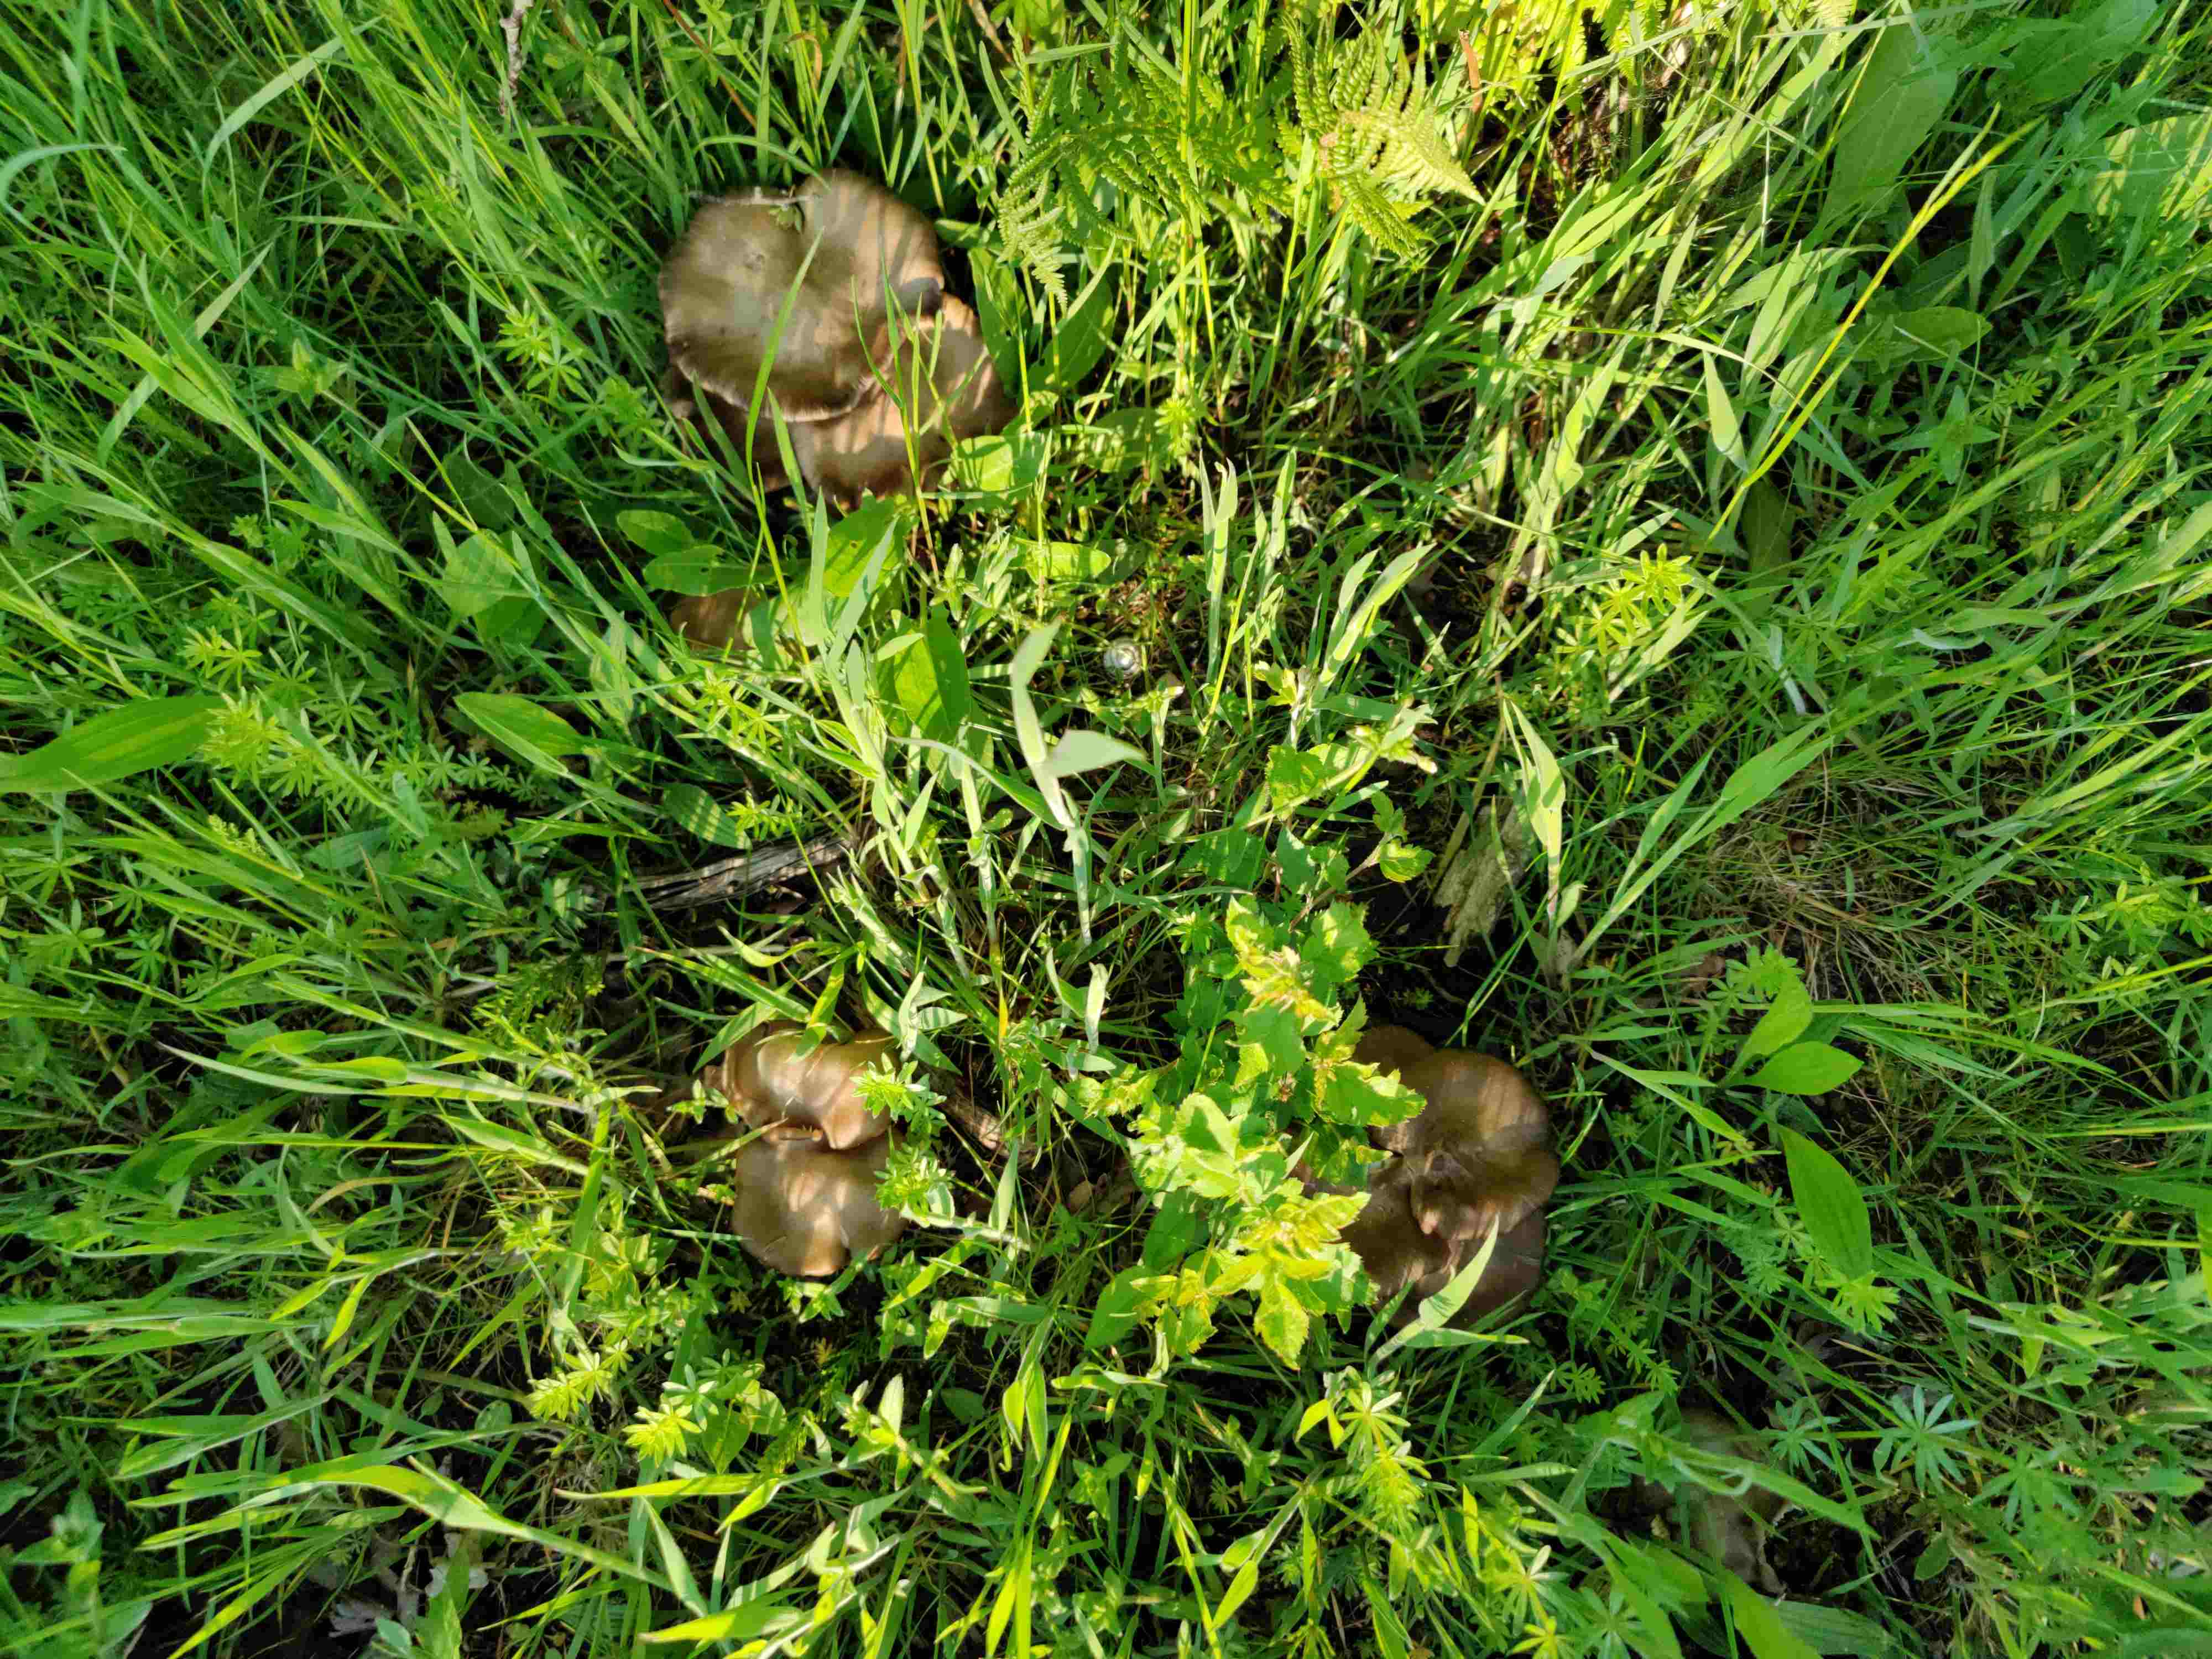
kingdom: Fungi
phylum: Basidiomycota
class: Agaricomycetes
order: Agaricales
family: Entolomataceae
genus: Entoloma
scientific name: Entoloma clypeatum
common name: flammet rødblad
